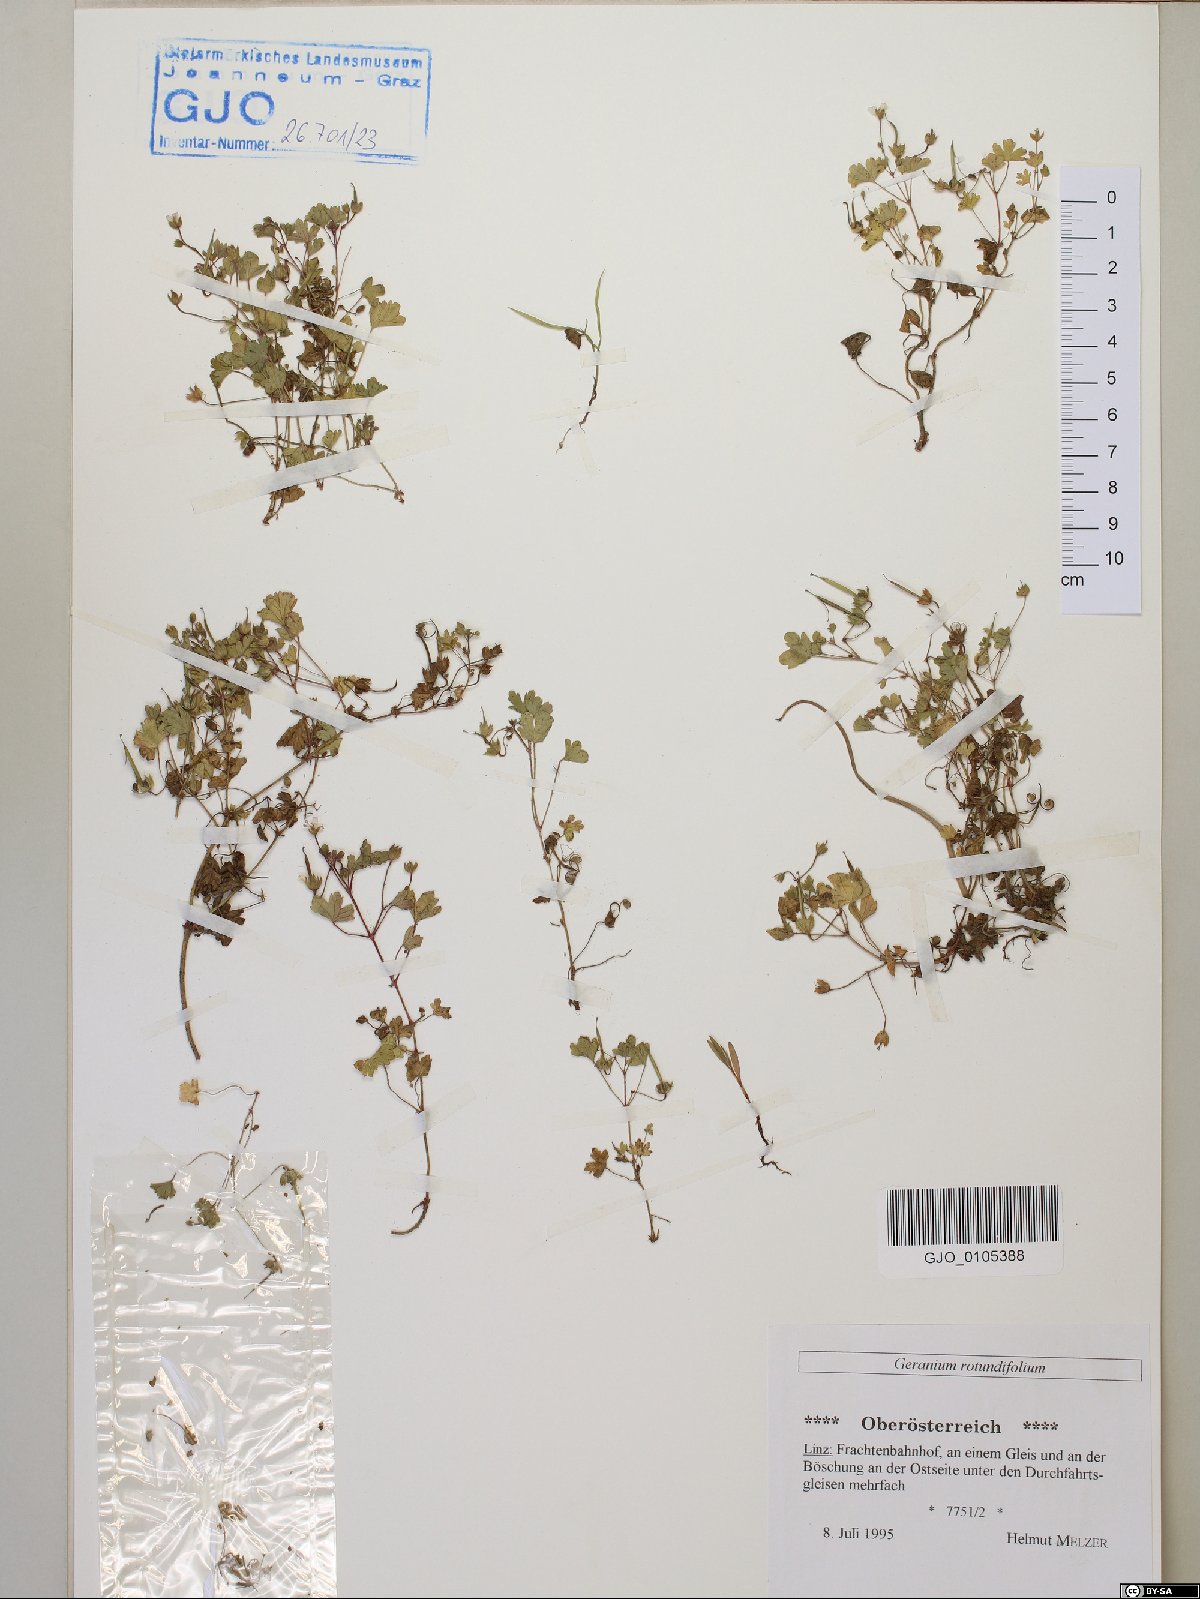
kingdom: Plantae
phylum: Tracheophyta
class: Magnoliopsida
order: Geraniales
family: Geraniaceae
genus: Geranium
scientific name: Geranium rotundifolium
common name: Round-leaved crane's-bill
